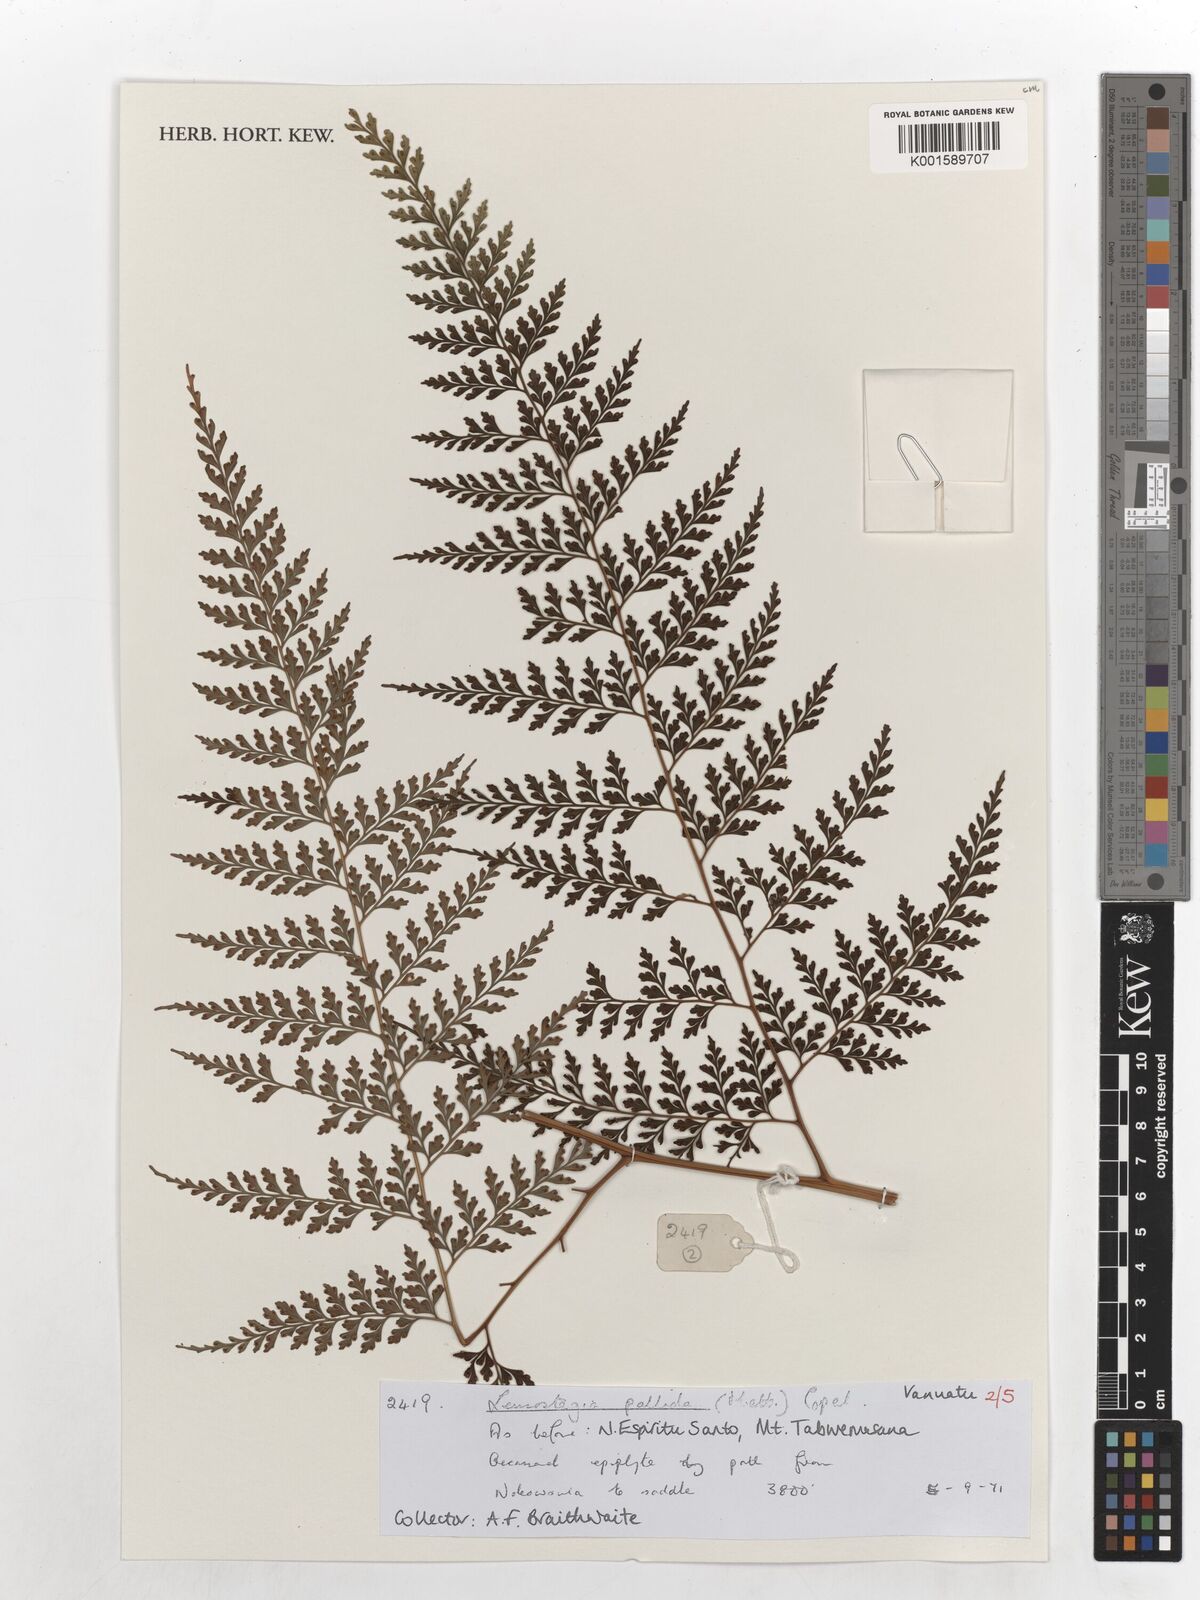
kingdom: Plantae
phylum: Tracheophyta
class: Polypodiopsida
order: Polypodiales
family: Hypodematiaceae
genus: Leucostegia
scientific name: Leucostegia pallida
